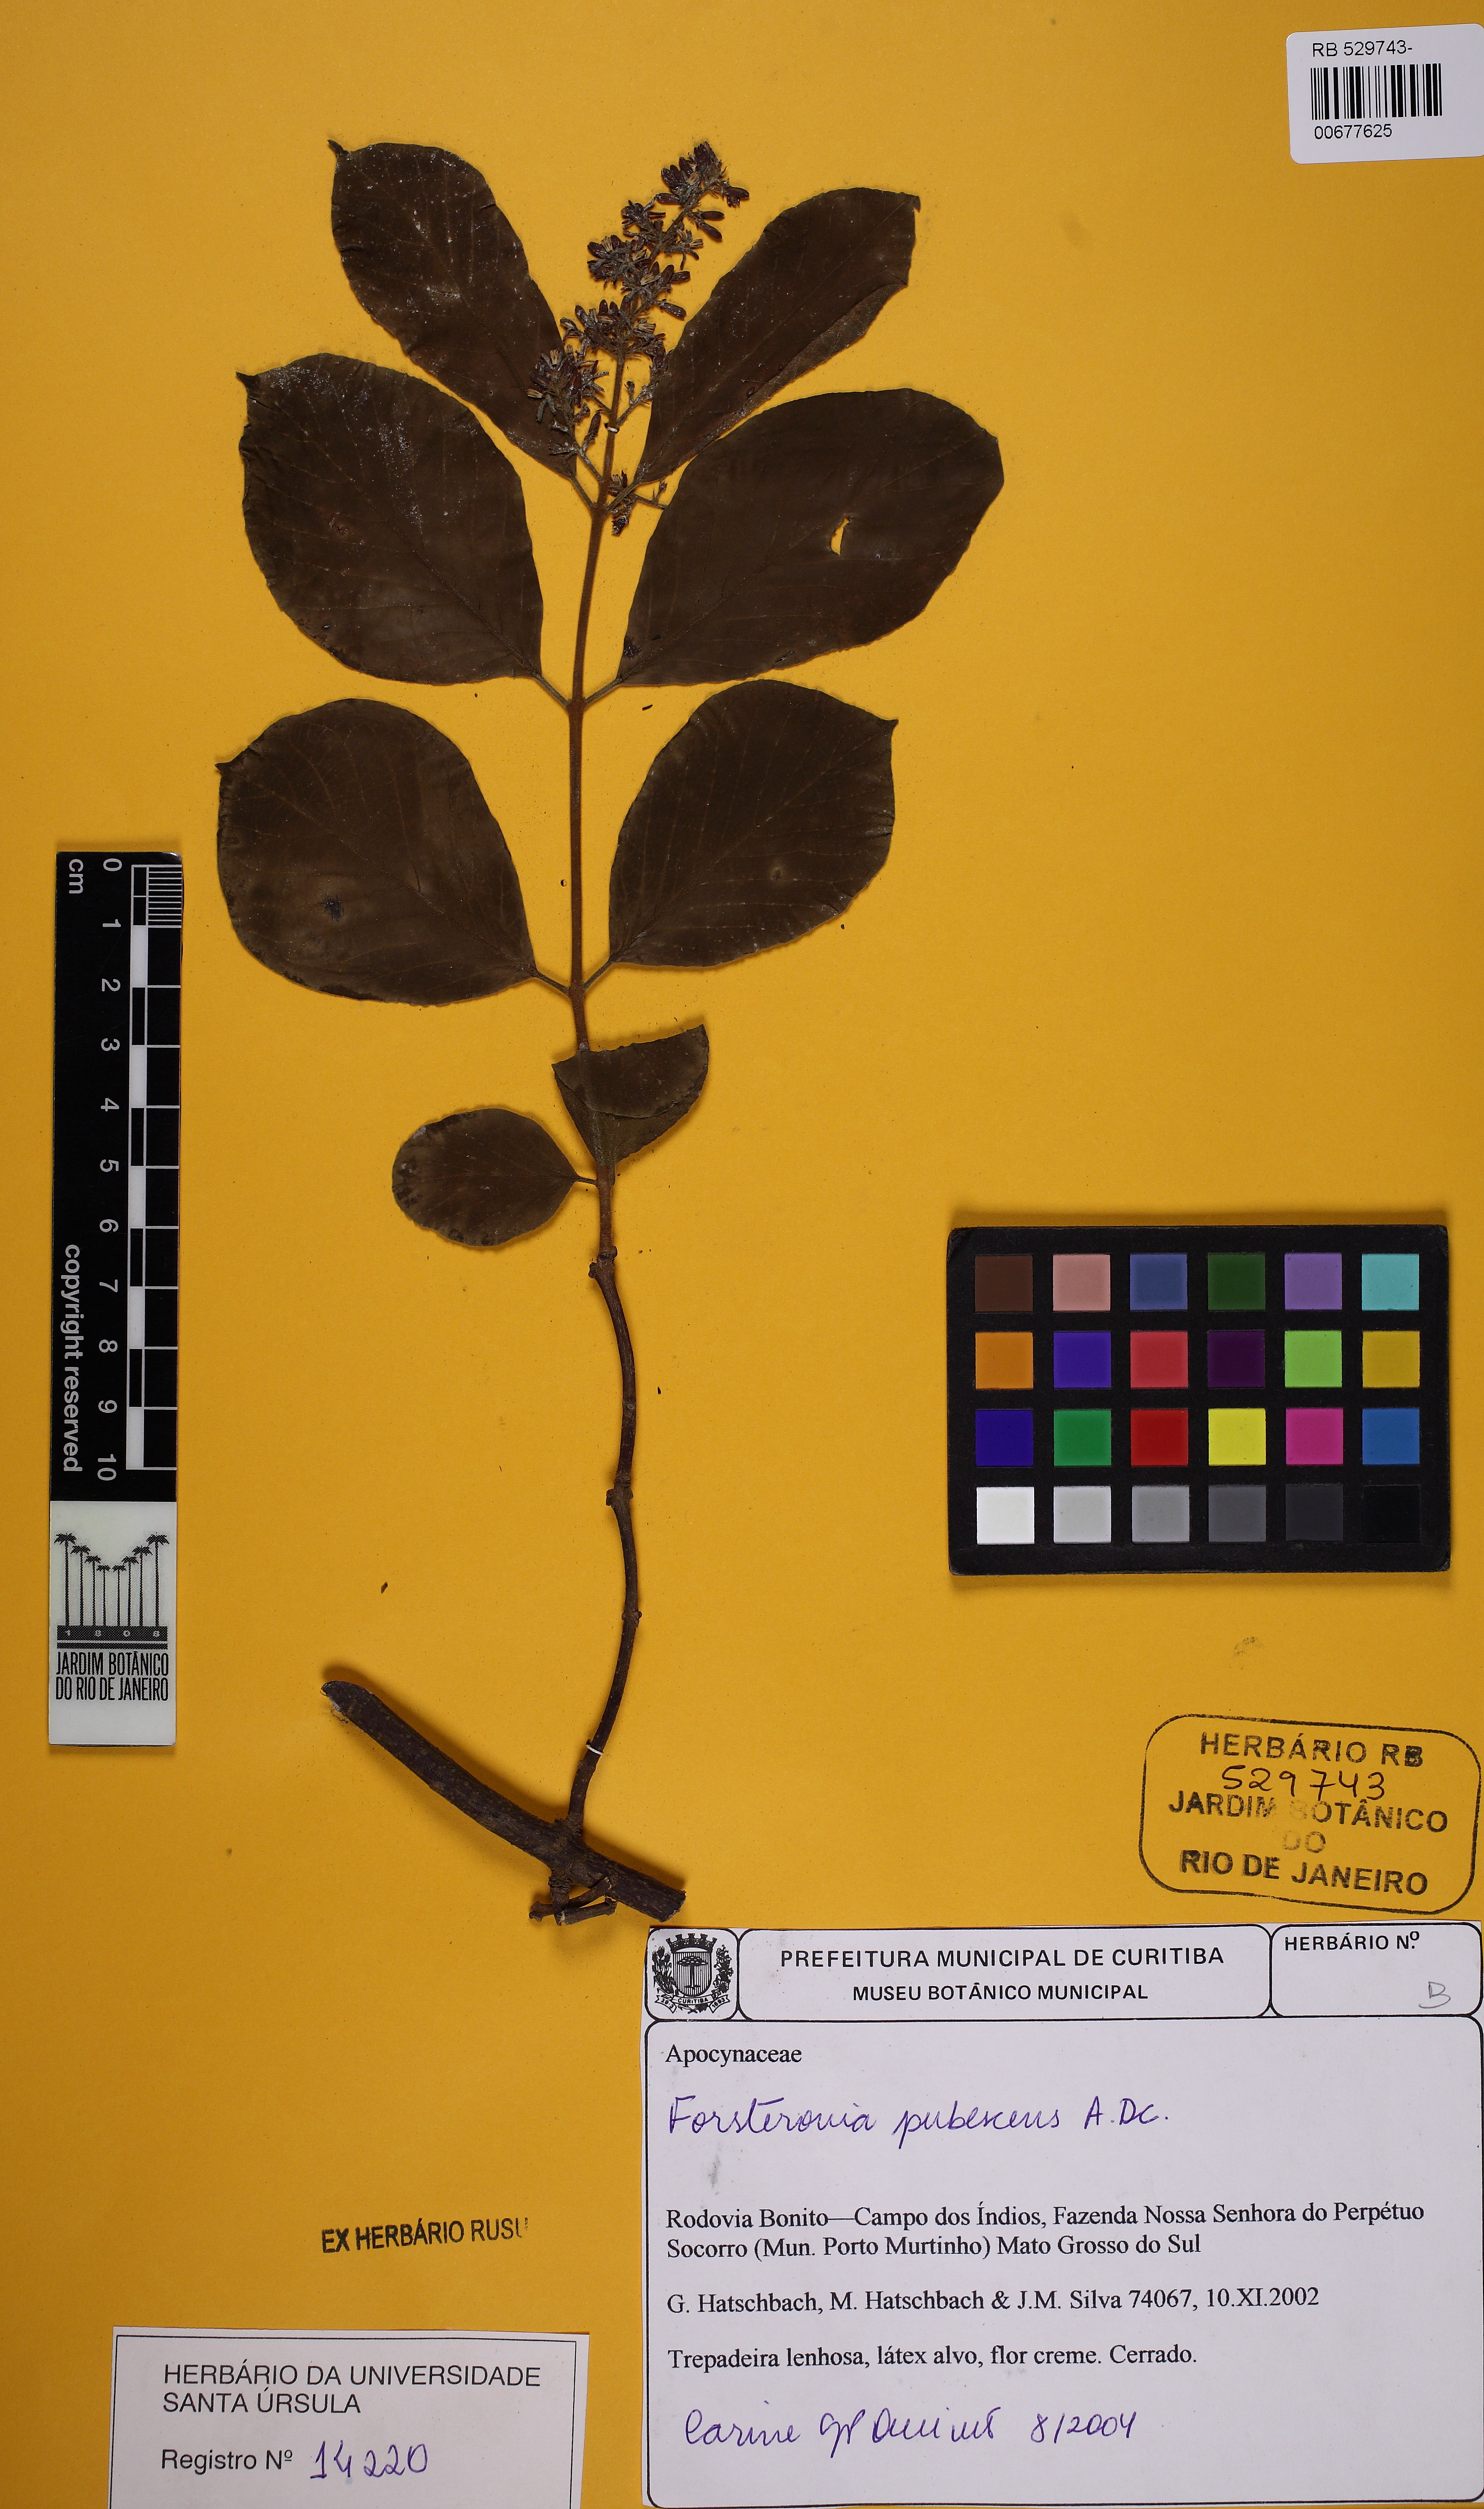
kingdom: Plantae
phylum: Tracheophyta
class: Magnoliopsida
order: Gentianales
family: Apocynaceae
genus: Forsteronia
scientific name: Forsteronia pubescens
